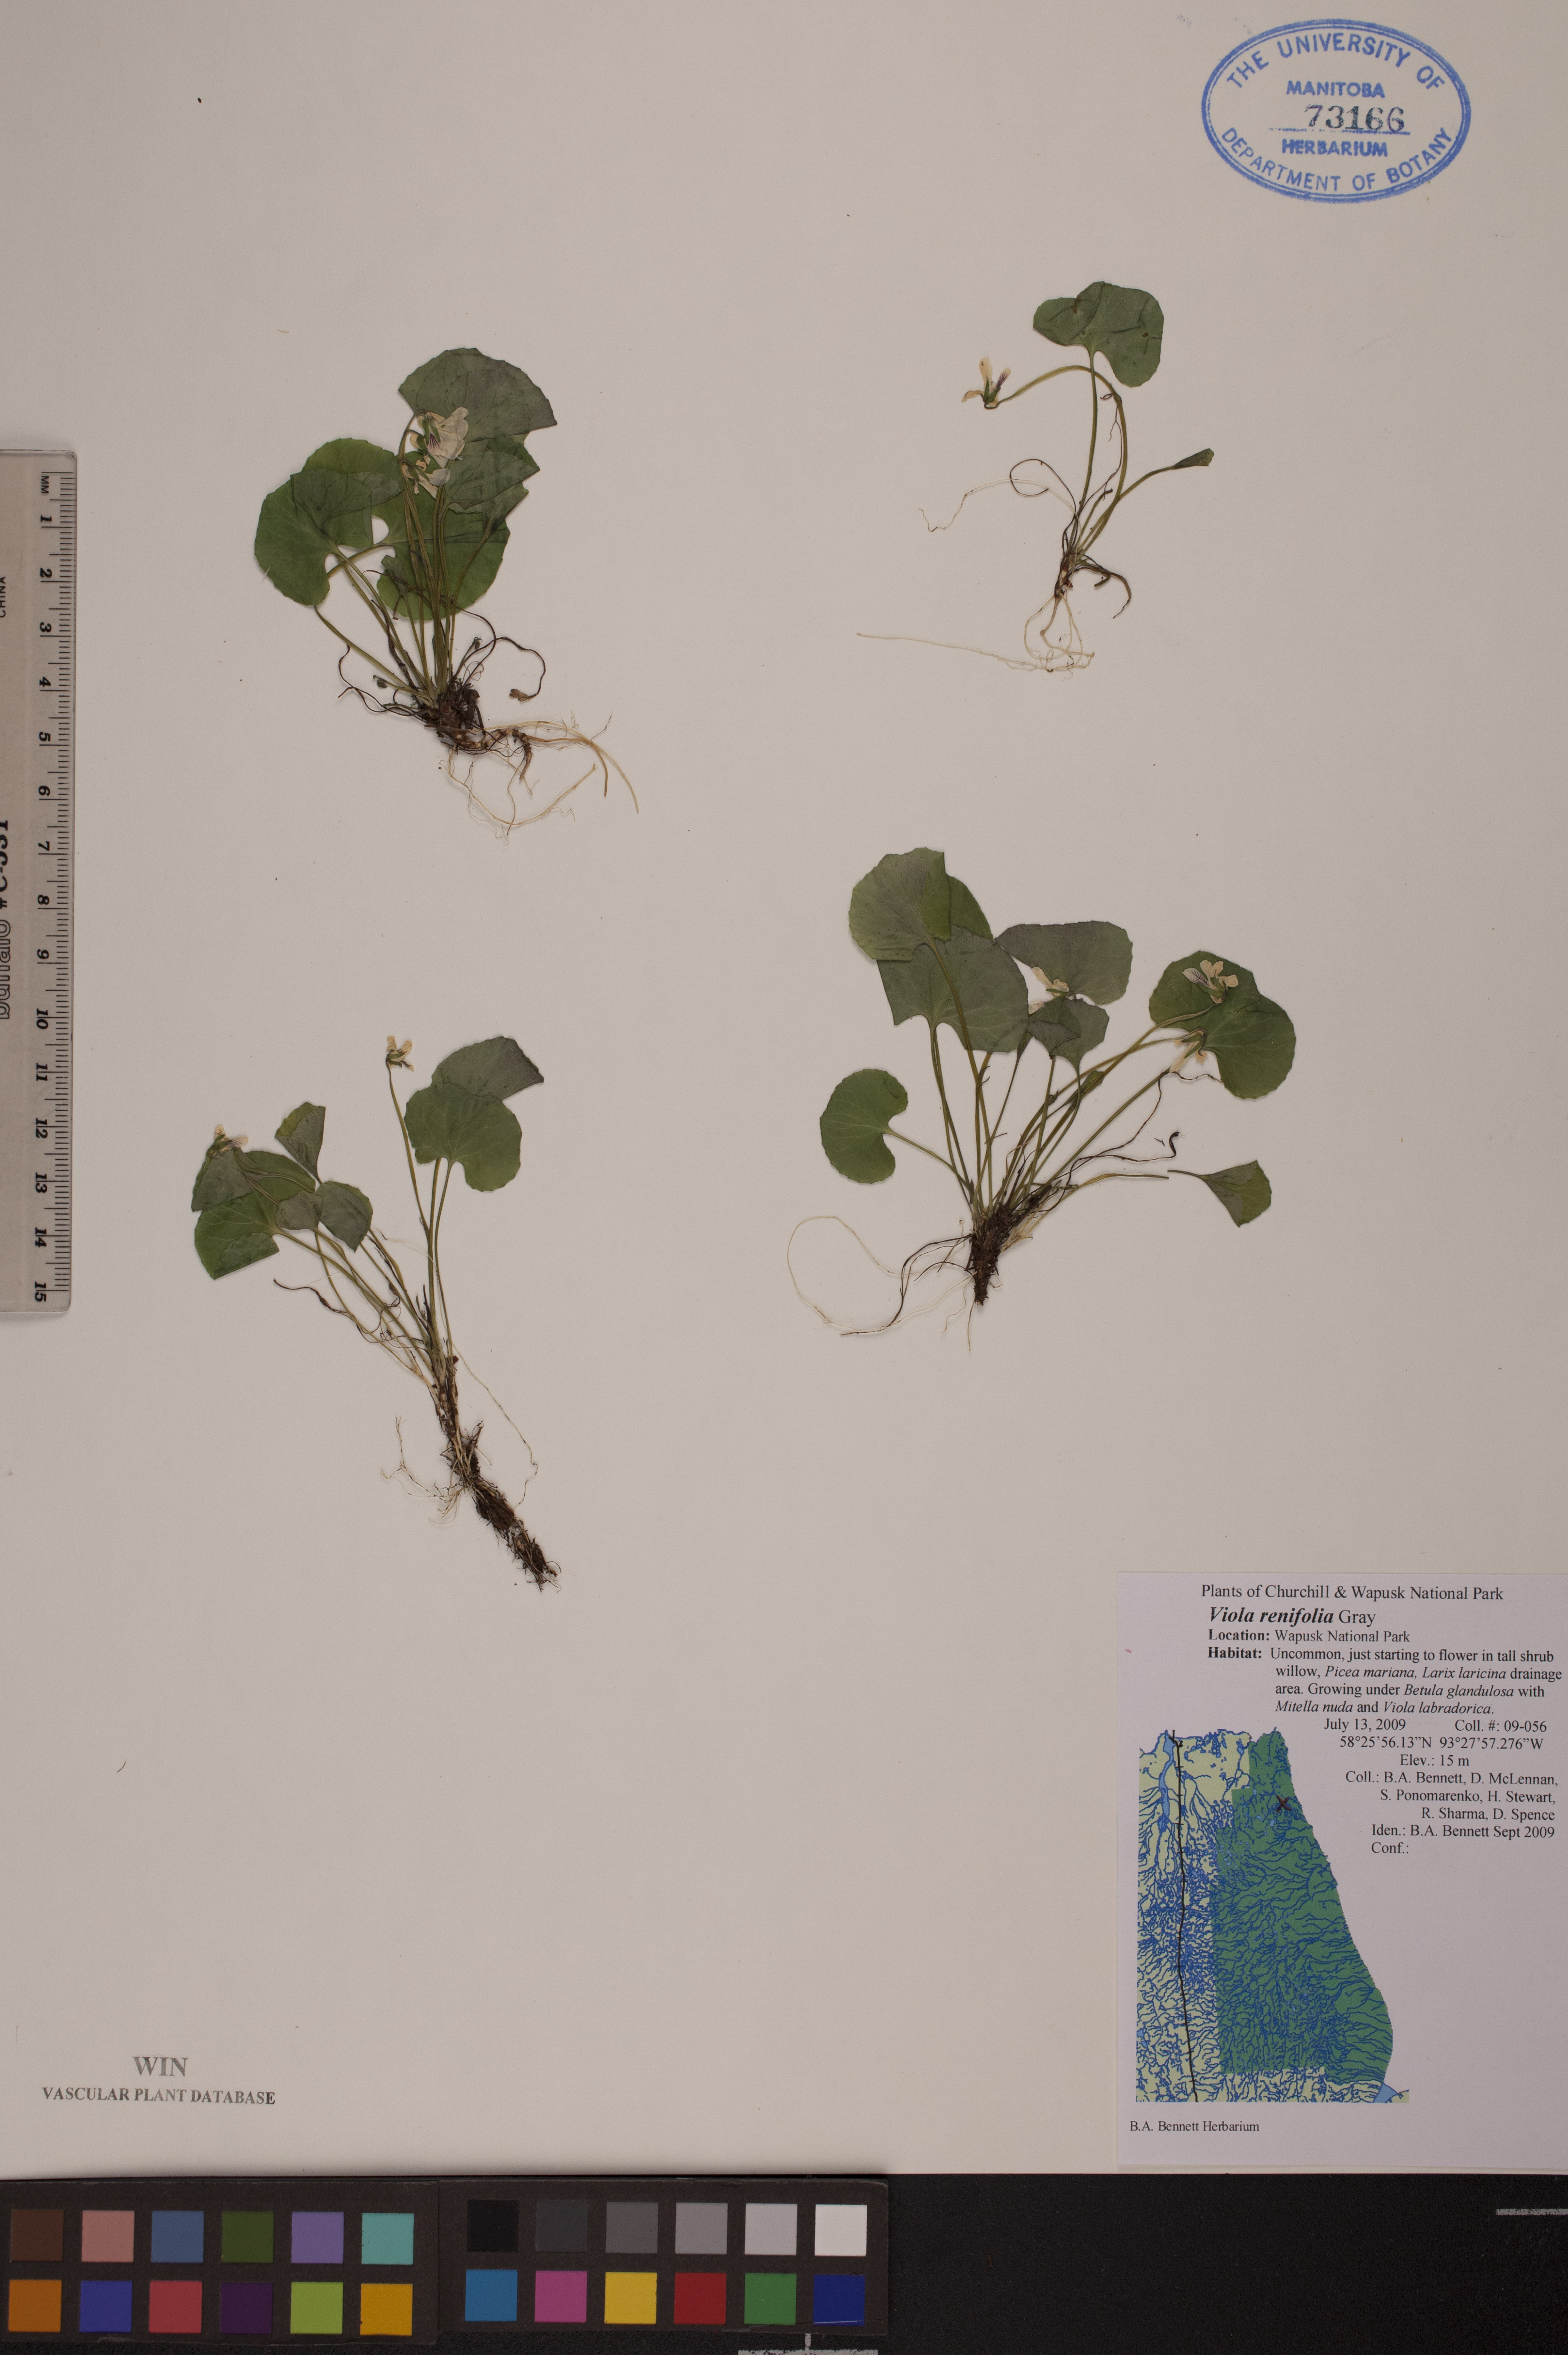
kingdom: Plantae
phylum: Tracheophyta
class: Magnoliopsida
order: Malpighiales
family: Violaceae
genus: Viola
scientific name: Viola renifolia
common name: Kidney-leaf violet
